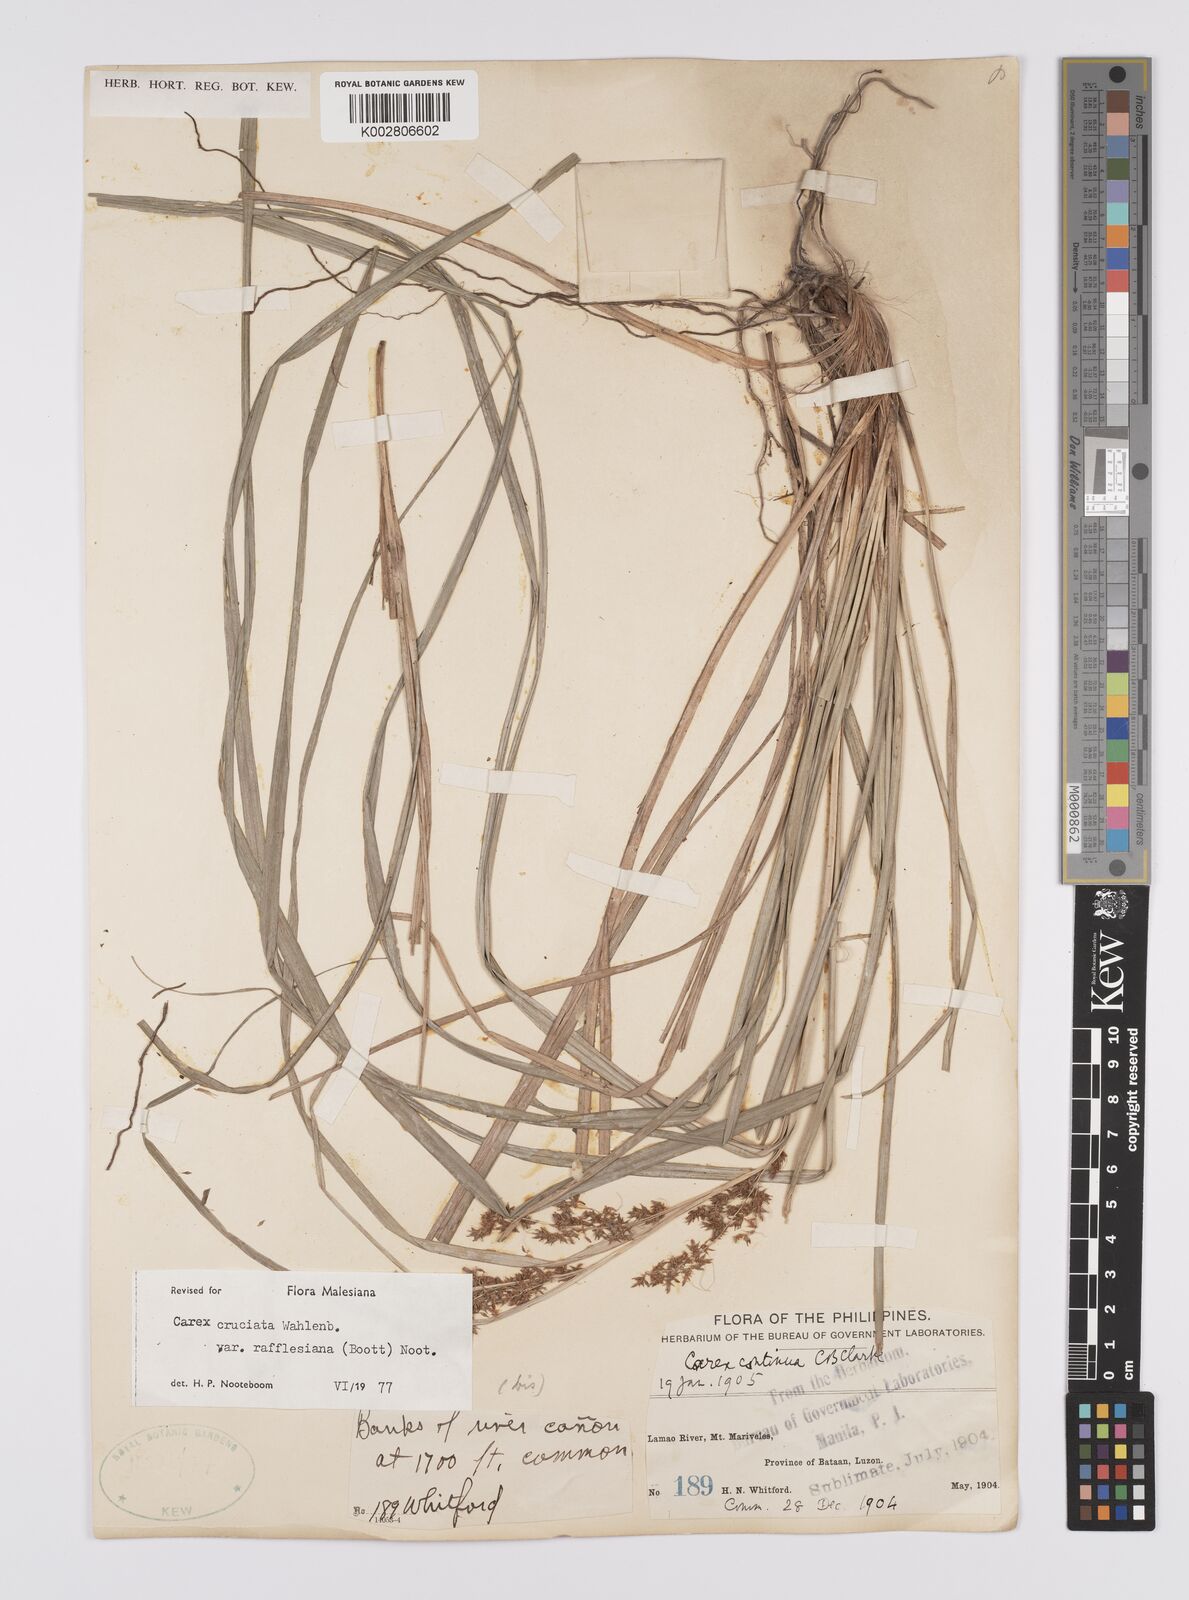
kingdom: Plantae
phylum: Tracheophyta
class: Liliopsida
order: Poales
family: Cyperaceae
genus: Carex
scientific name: Carex rafflesiana
